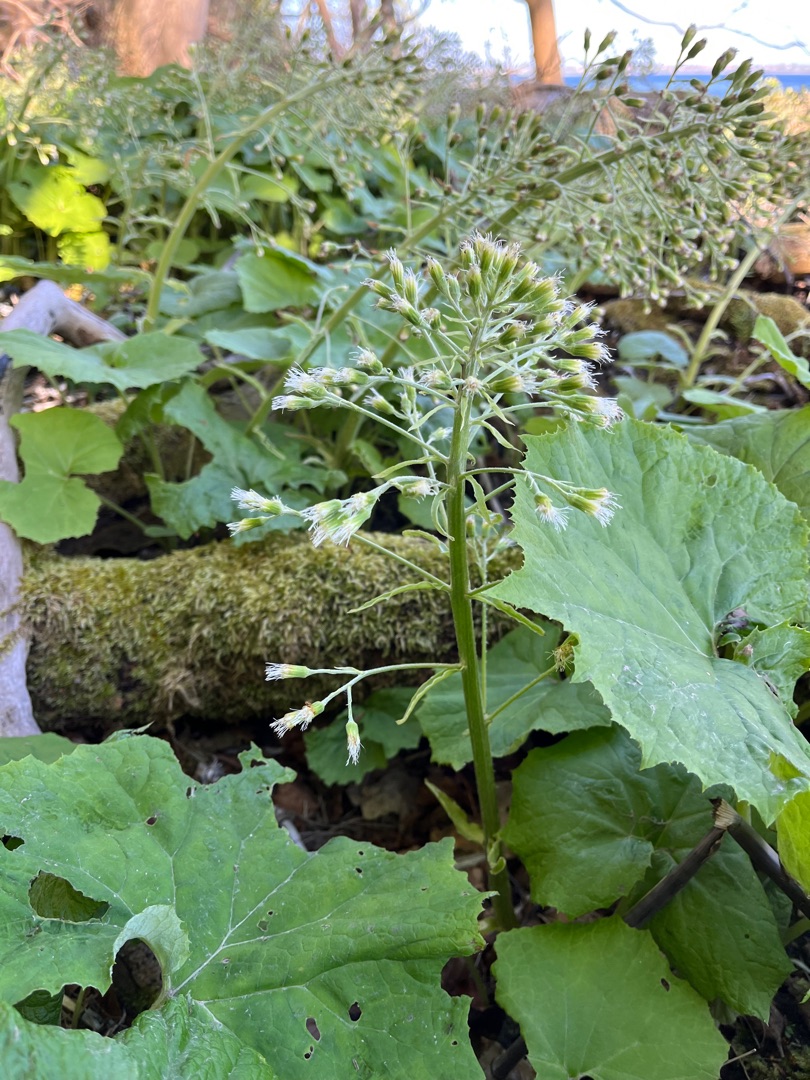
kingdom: Plantae
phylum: Tracheophyta
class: Magnoliopsida
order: Asterales
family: Asteraceae
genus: Petasites
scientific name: Petasites albus
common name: Hvid hestehov
